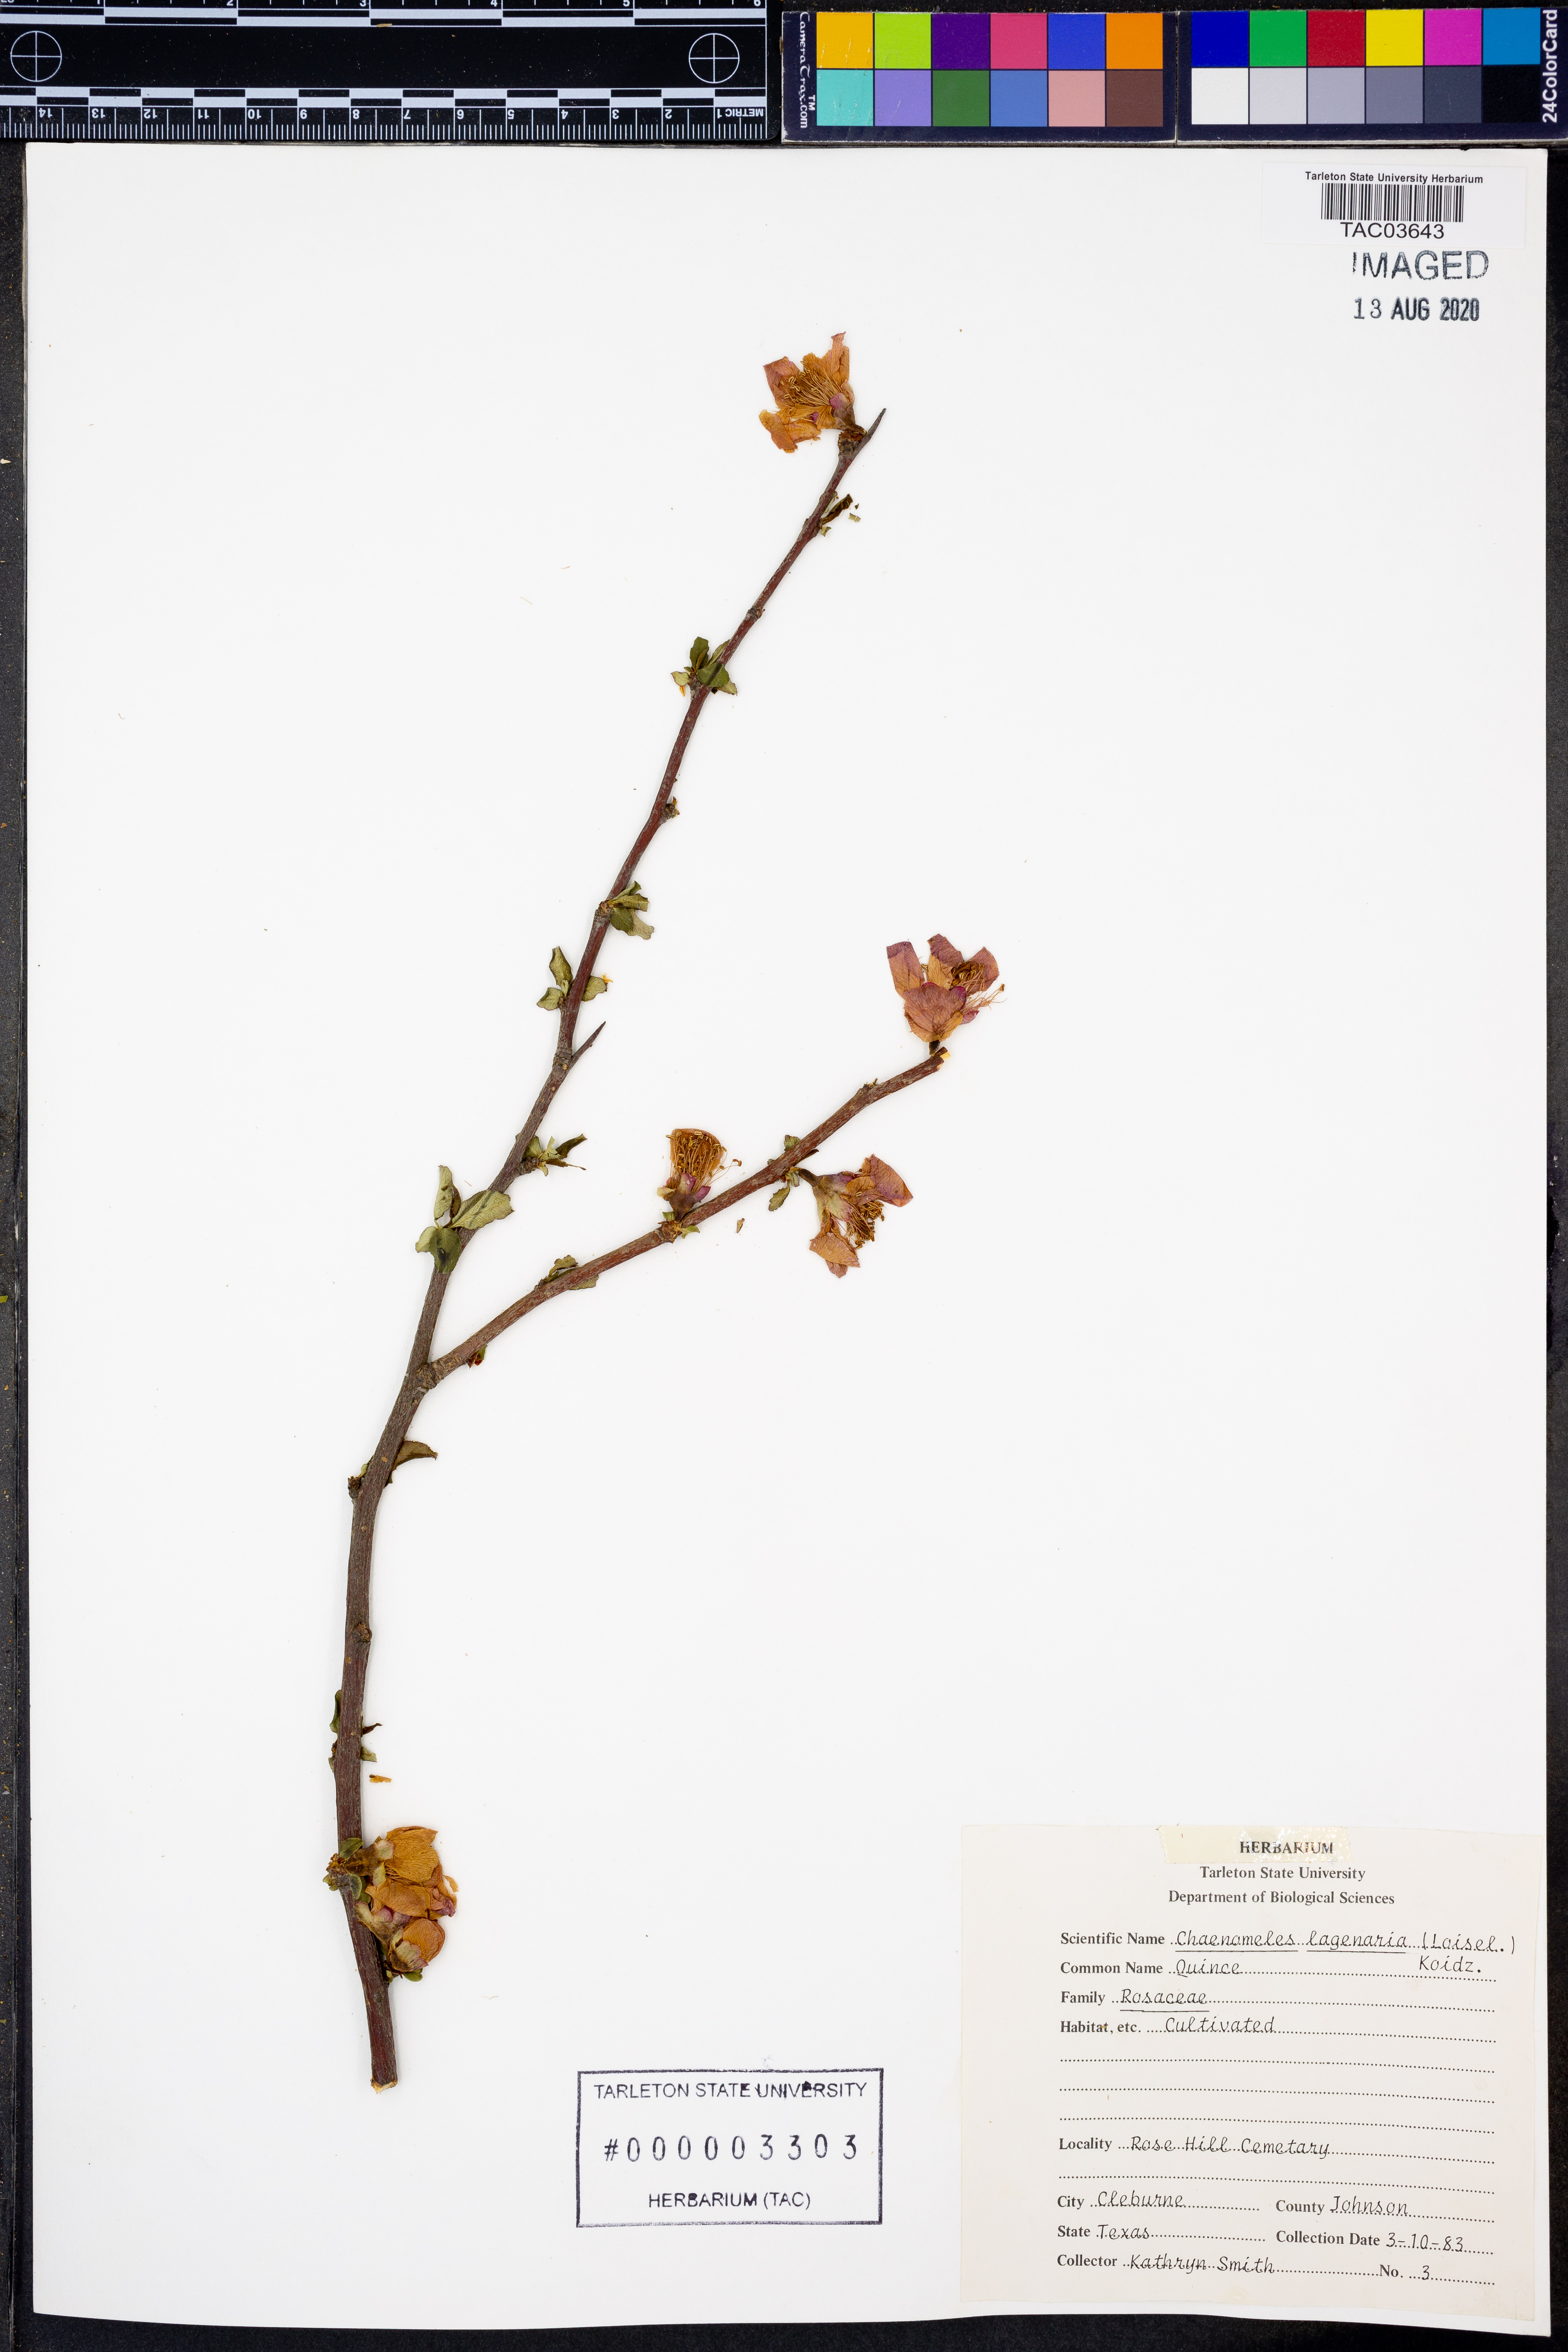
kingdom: Plantae
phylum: Tracheophyta
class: Magnoliopsida
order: Rosales
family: Rosaceae
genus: Chaenomeles
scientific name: Chaenomeles
